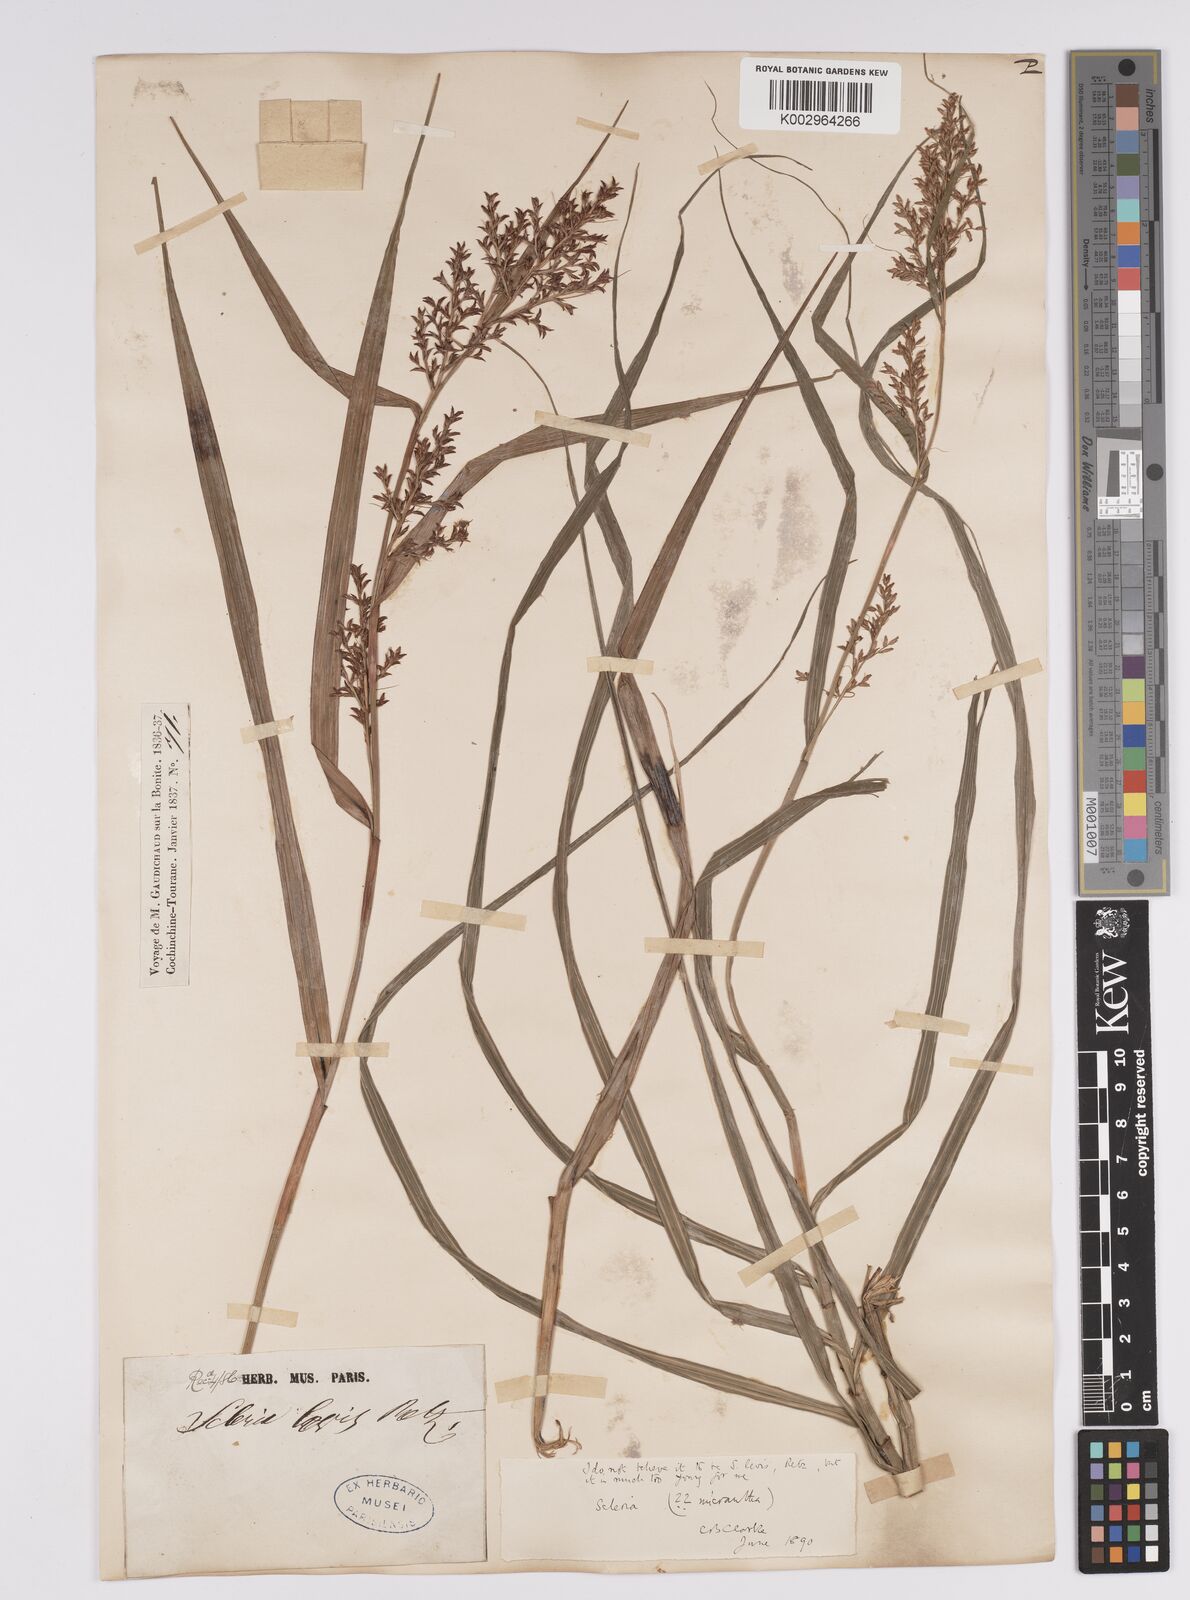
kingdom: Plantae
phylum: Tracheophyta
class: Liliopsida
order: Poales
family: Cyperaceae
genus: Scleria
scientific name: Scleria polycarpa
